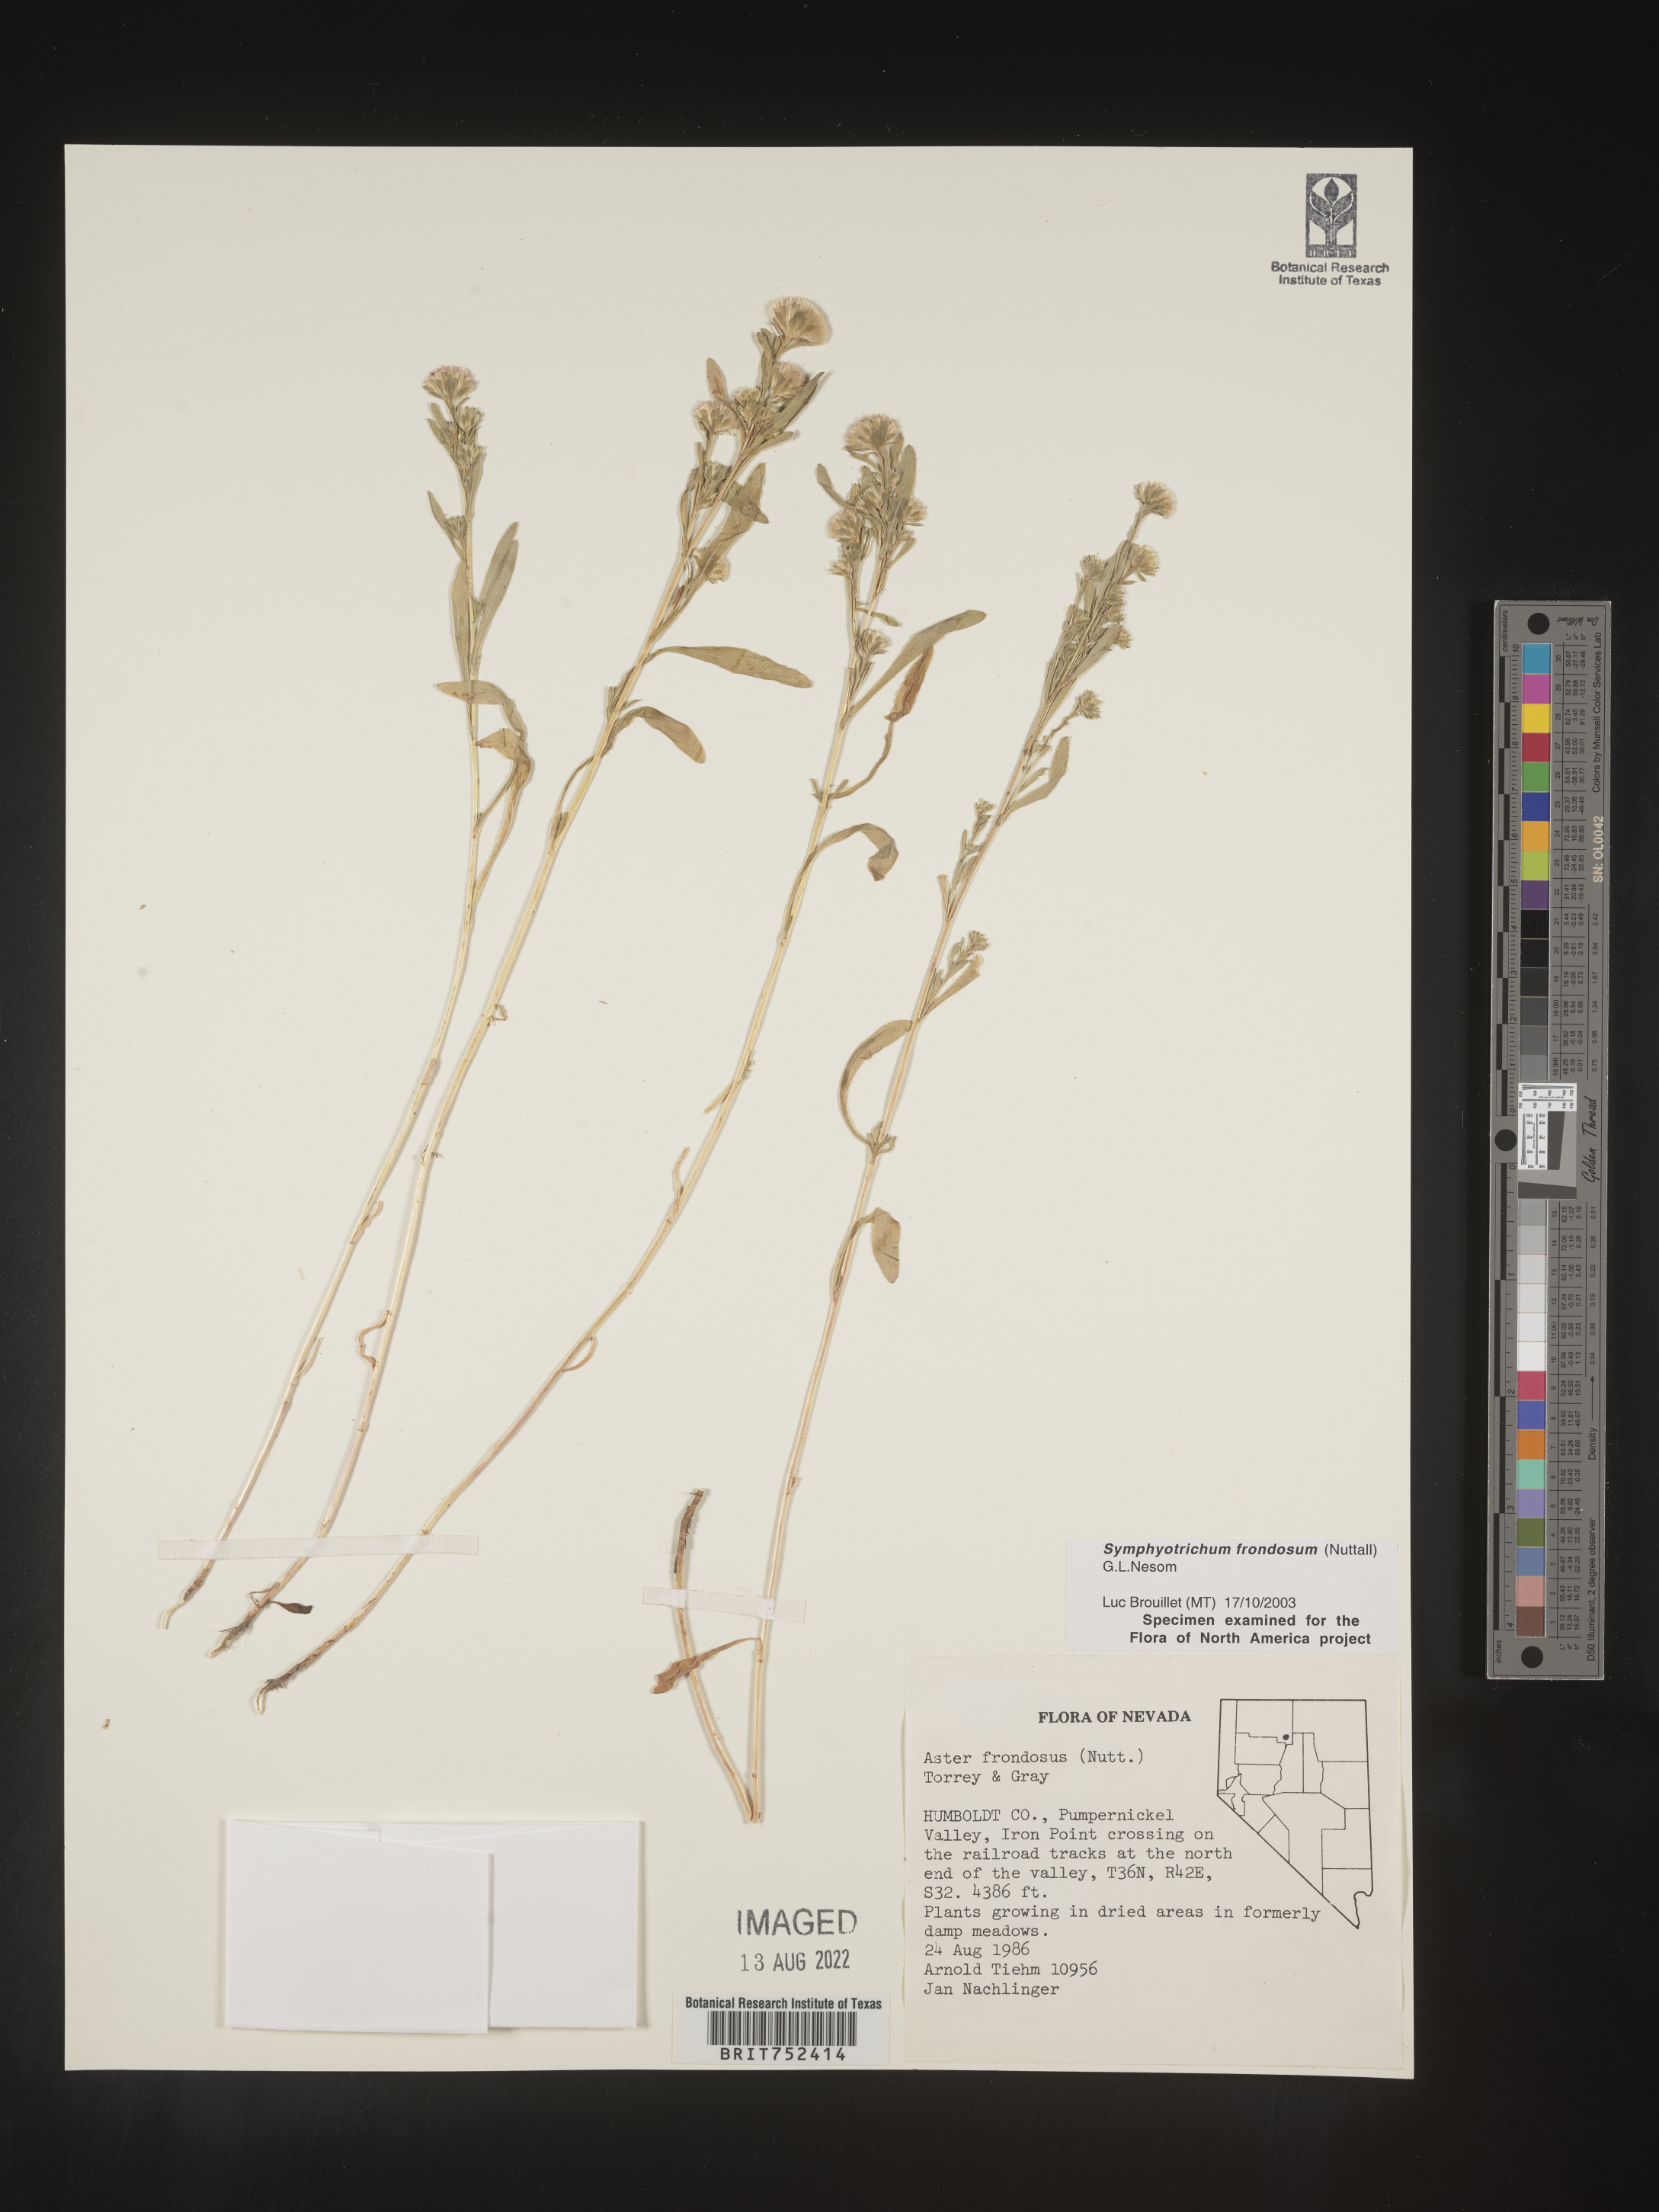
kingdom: Plantae
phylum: Tracheophyta
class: Magnoliopsida
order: Asterales
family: Asteraceae
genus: Symphyotrichum
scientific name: Symphyotrichum frondosum
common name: Leafy aster
